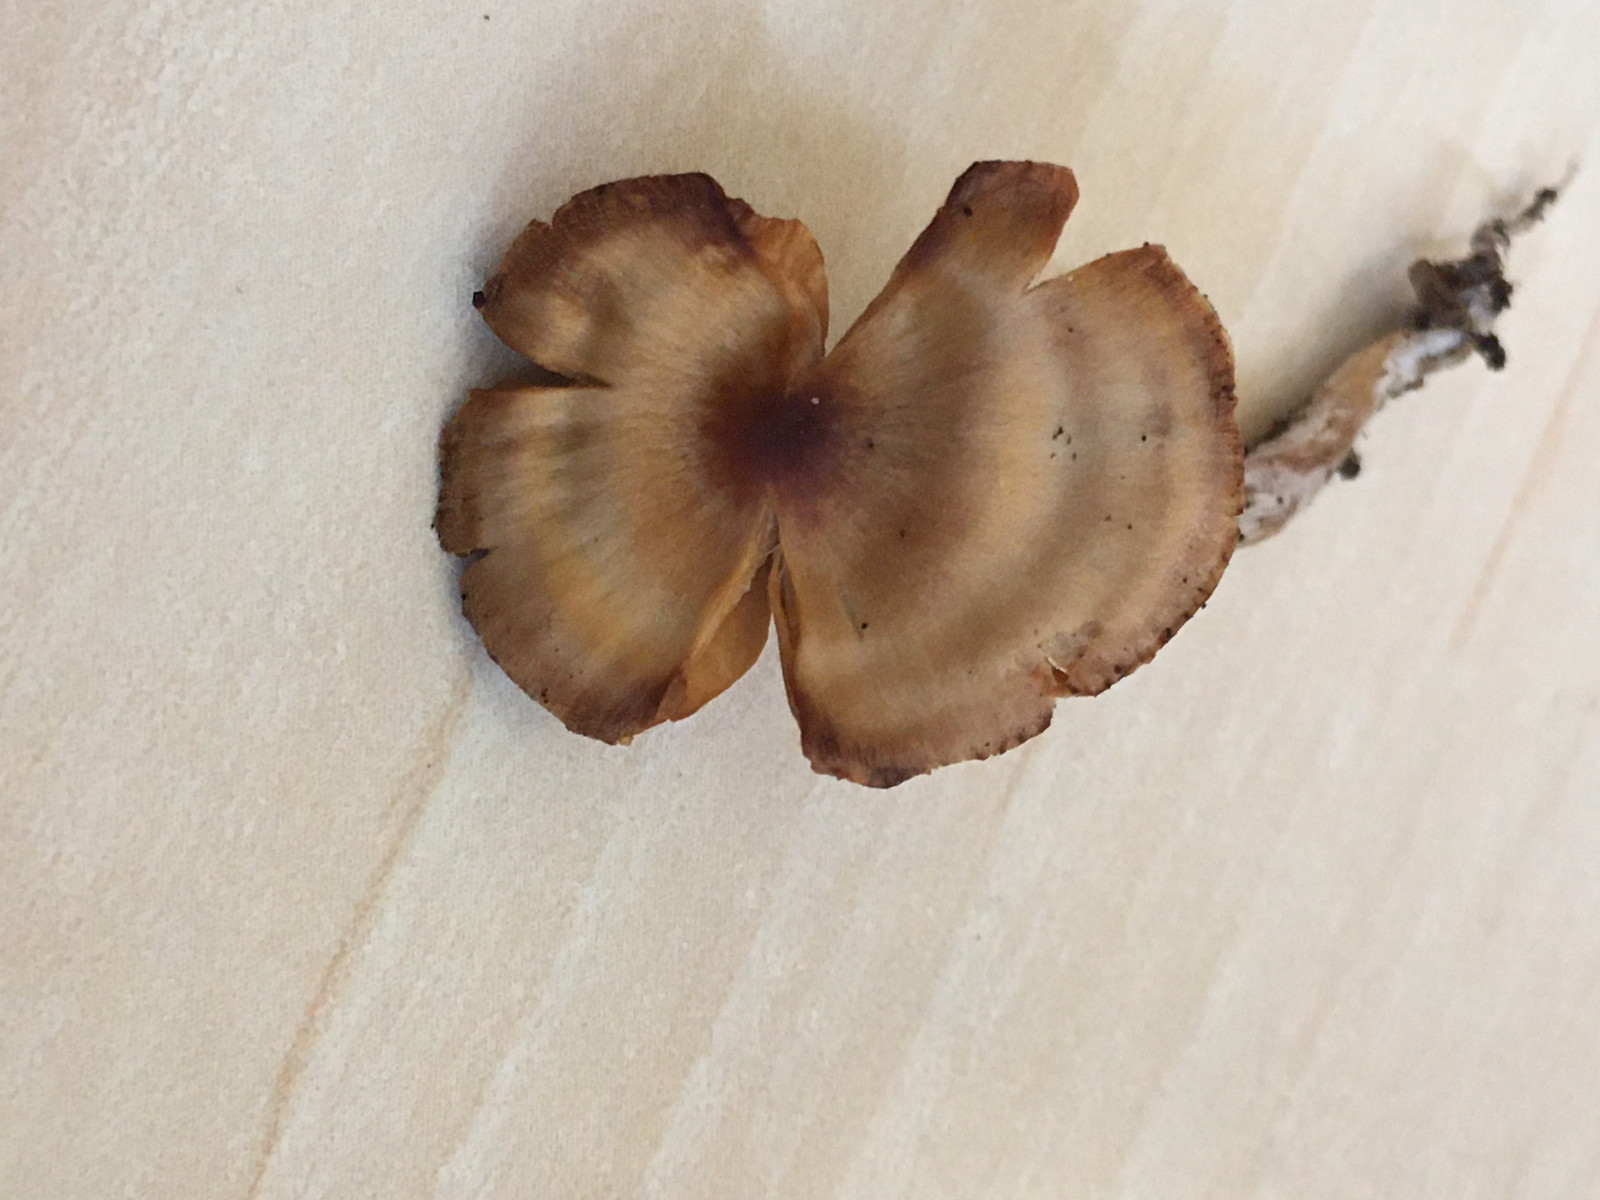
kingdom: Fungi
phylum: Basidiomycota
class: Agaricomycetes
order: Agaricales
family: Cortinariaceae
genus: Cortinarius
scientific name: Cortinarius
